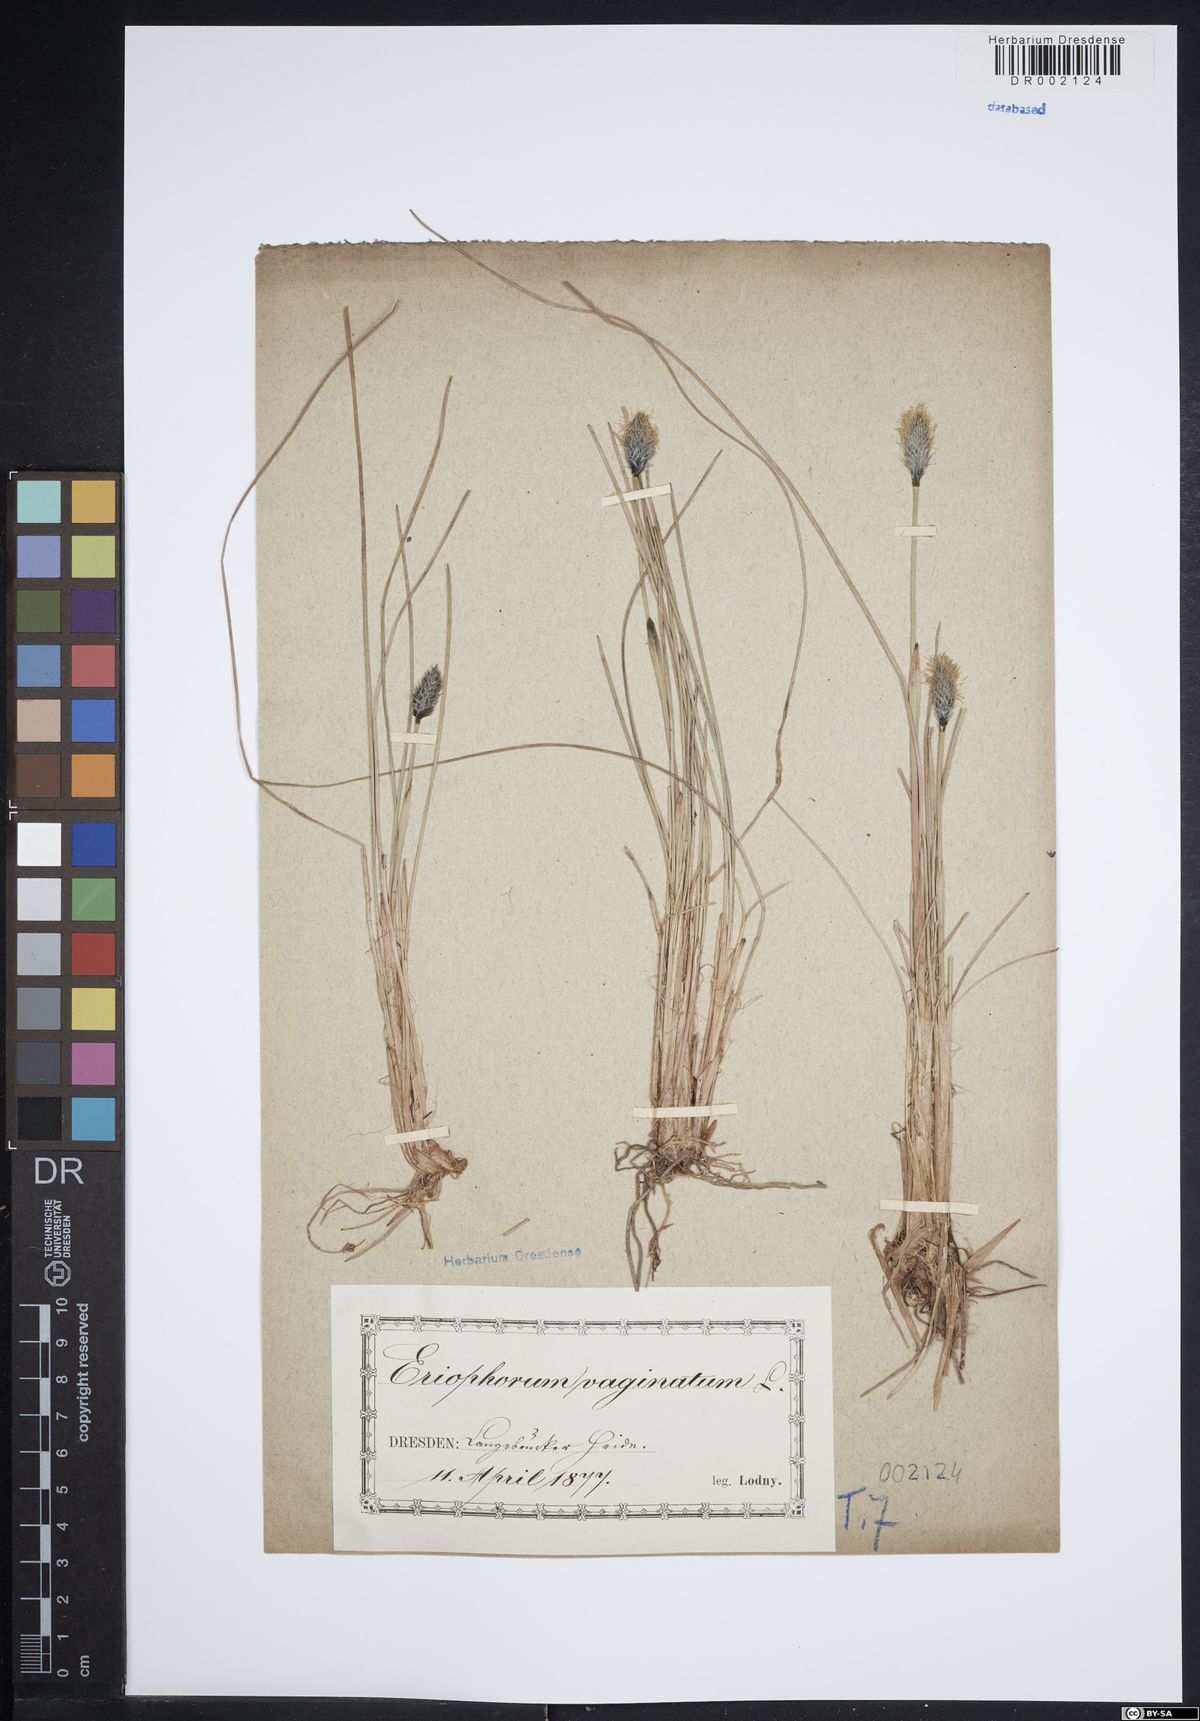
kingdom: Plantae
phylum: Tracheophyta
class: Liliopsida
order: Poales
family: Cyperaceae
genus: Eriophorum
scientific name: Eriophorum vaginatum
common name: Hare's-tail cottongrass
